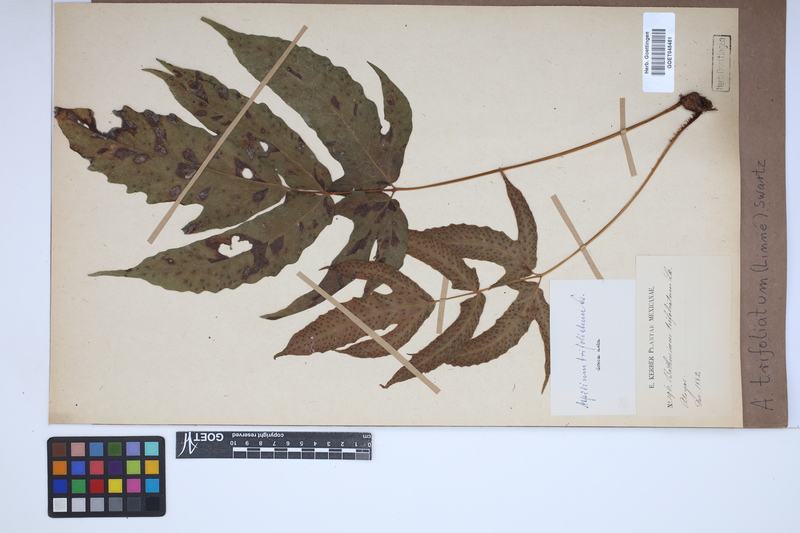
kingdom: Plantae
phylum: Tracheophyta
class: Polypodiopsida
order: Polypodiales
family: Tectariaceae
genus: Tectaria
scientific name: Tectaria trifoliata
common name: Threeleaf halberd fern
